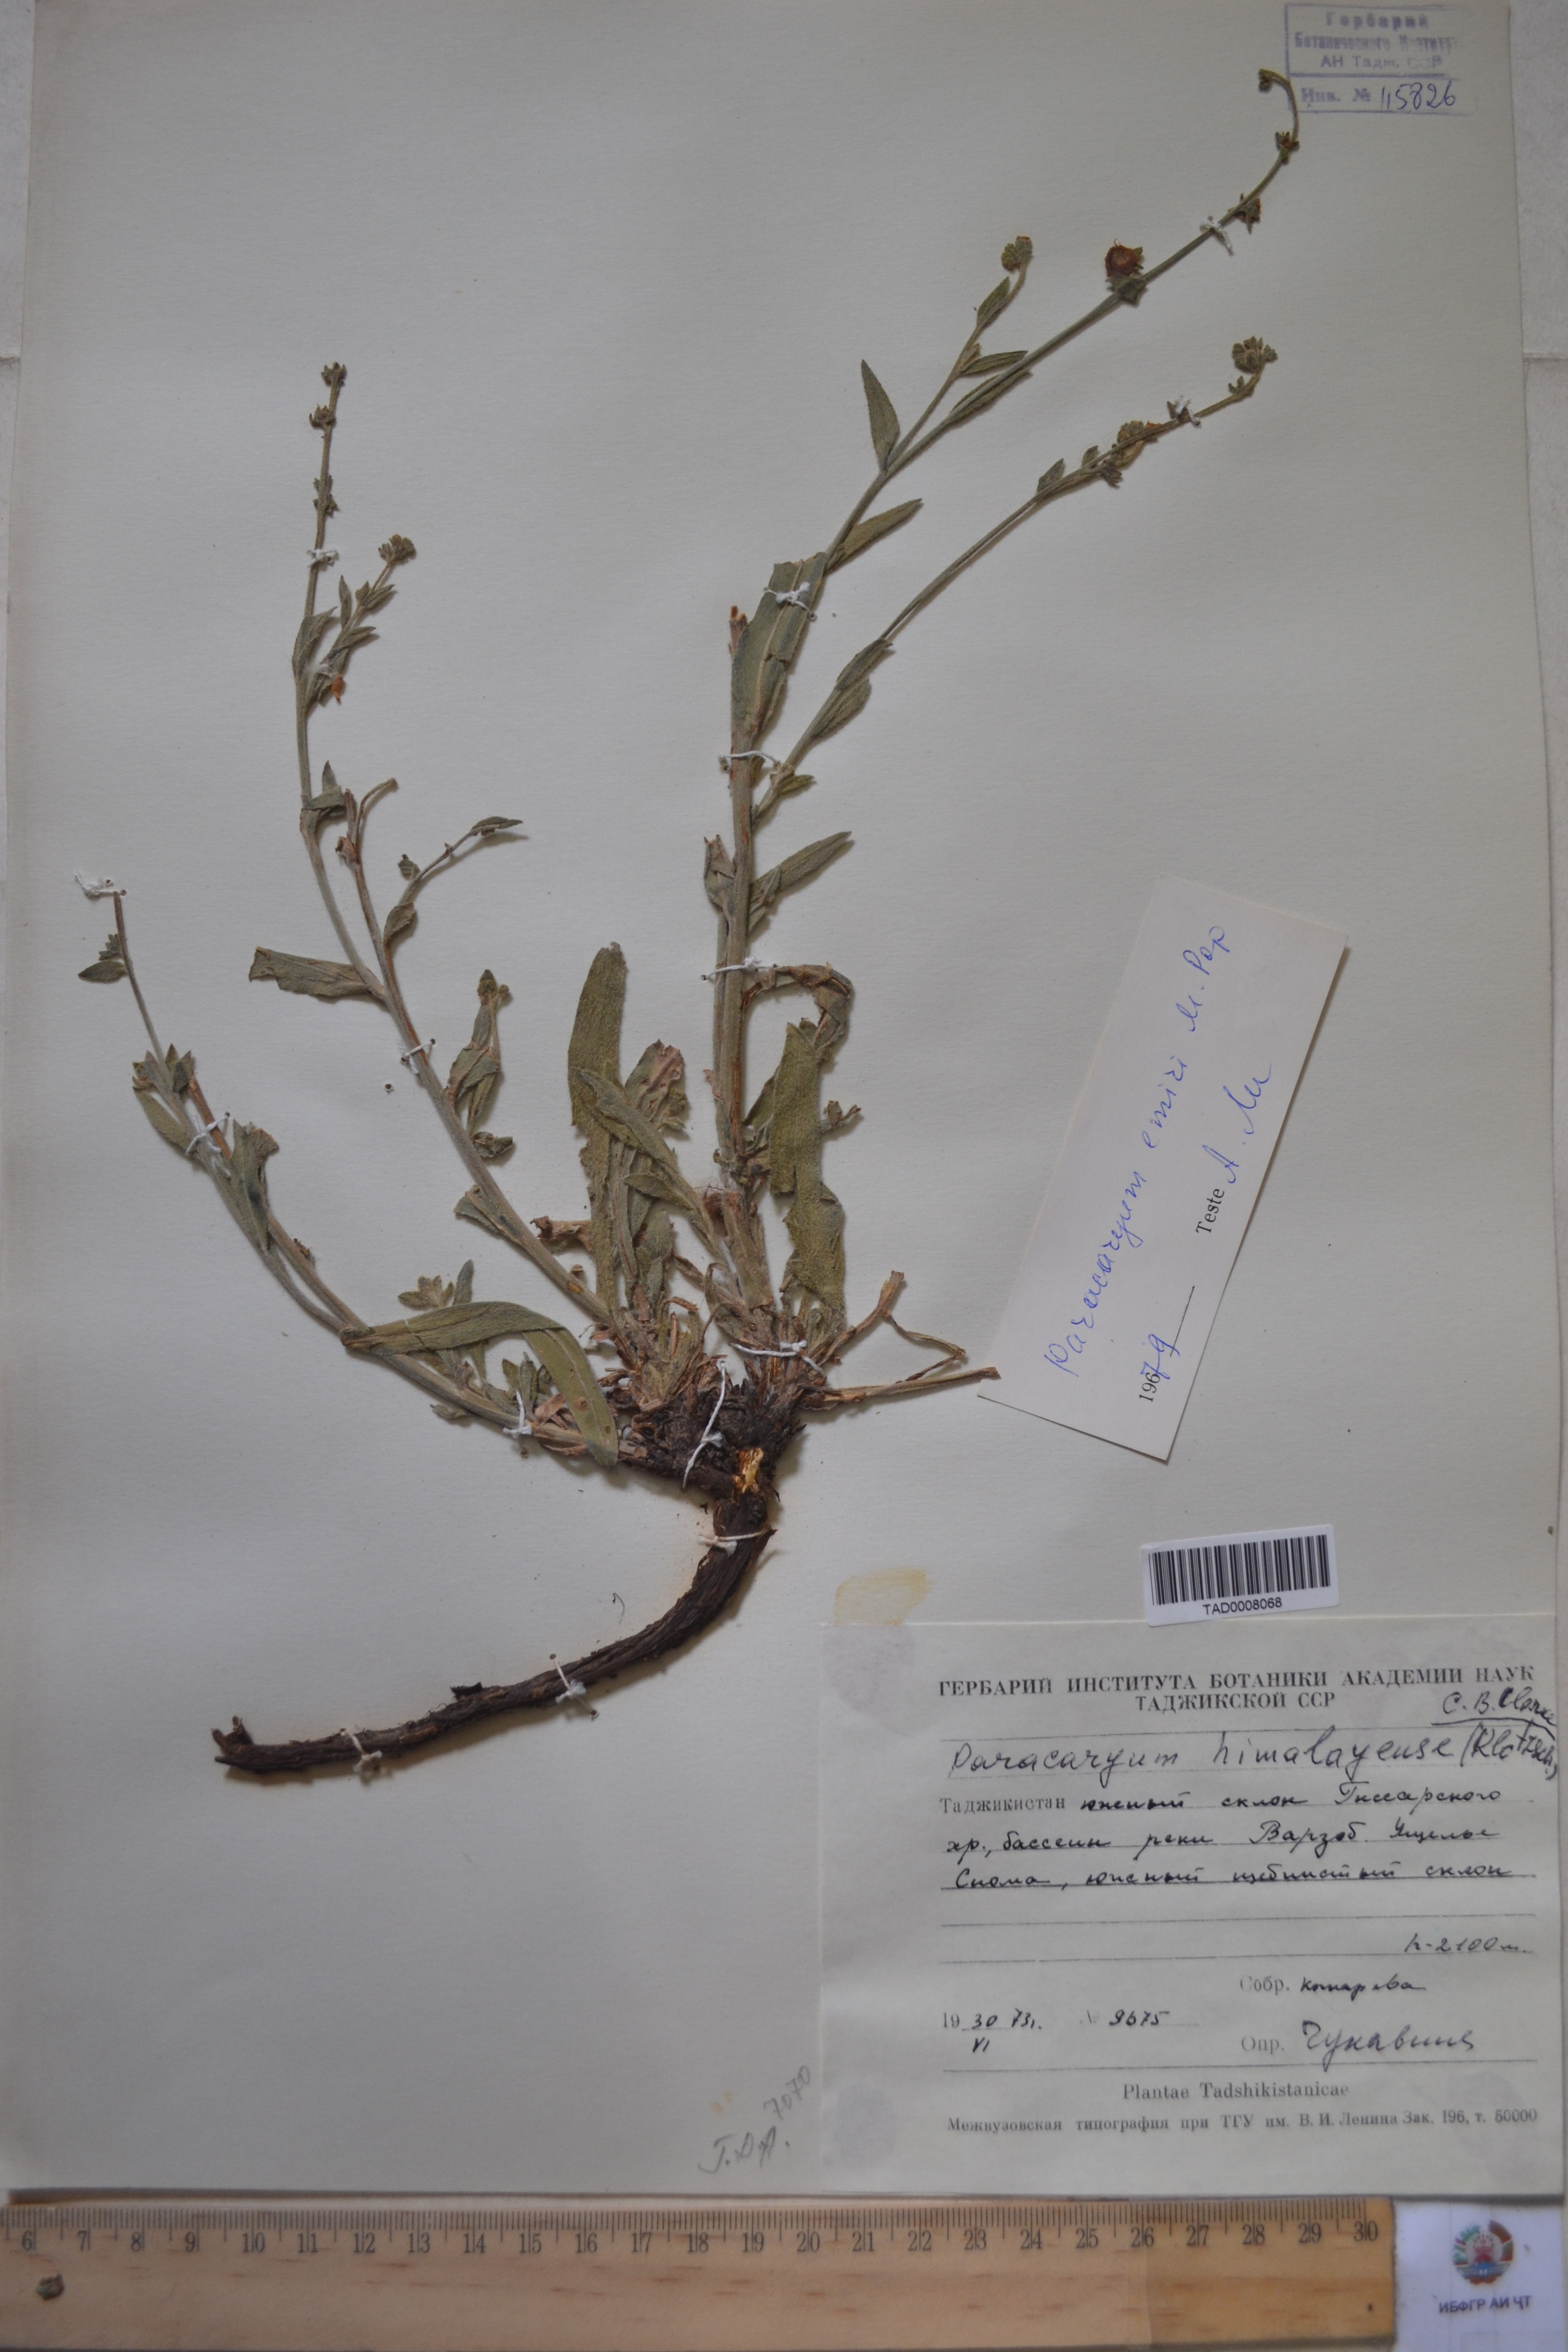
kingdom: Plantae
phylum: Tracheophyta
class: Magnoliopsida
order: Boraginales
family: Boraginaceae
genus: Paracaryum
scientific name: Paracaryum himalayense
